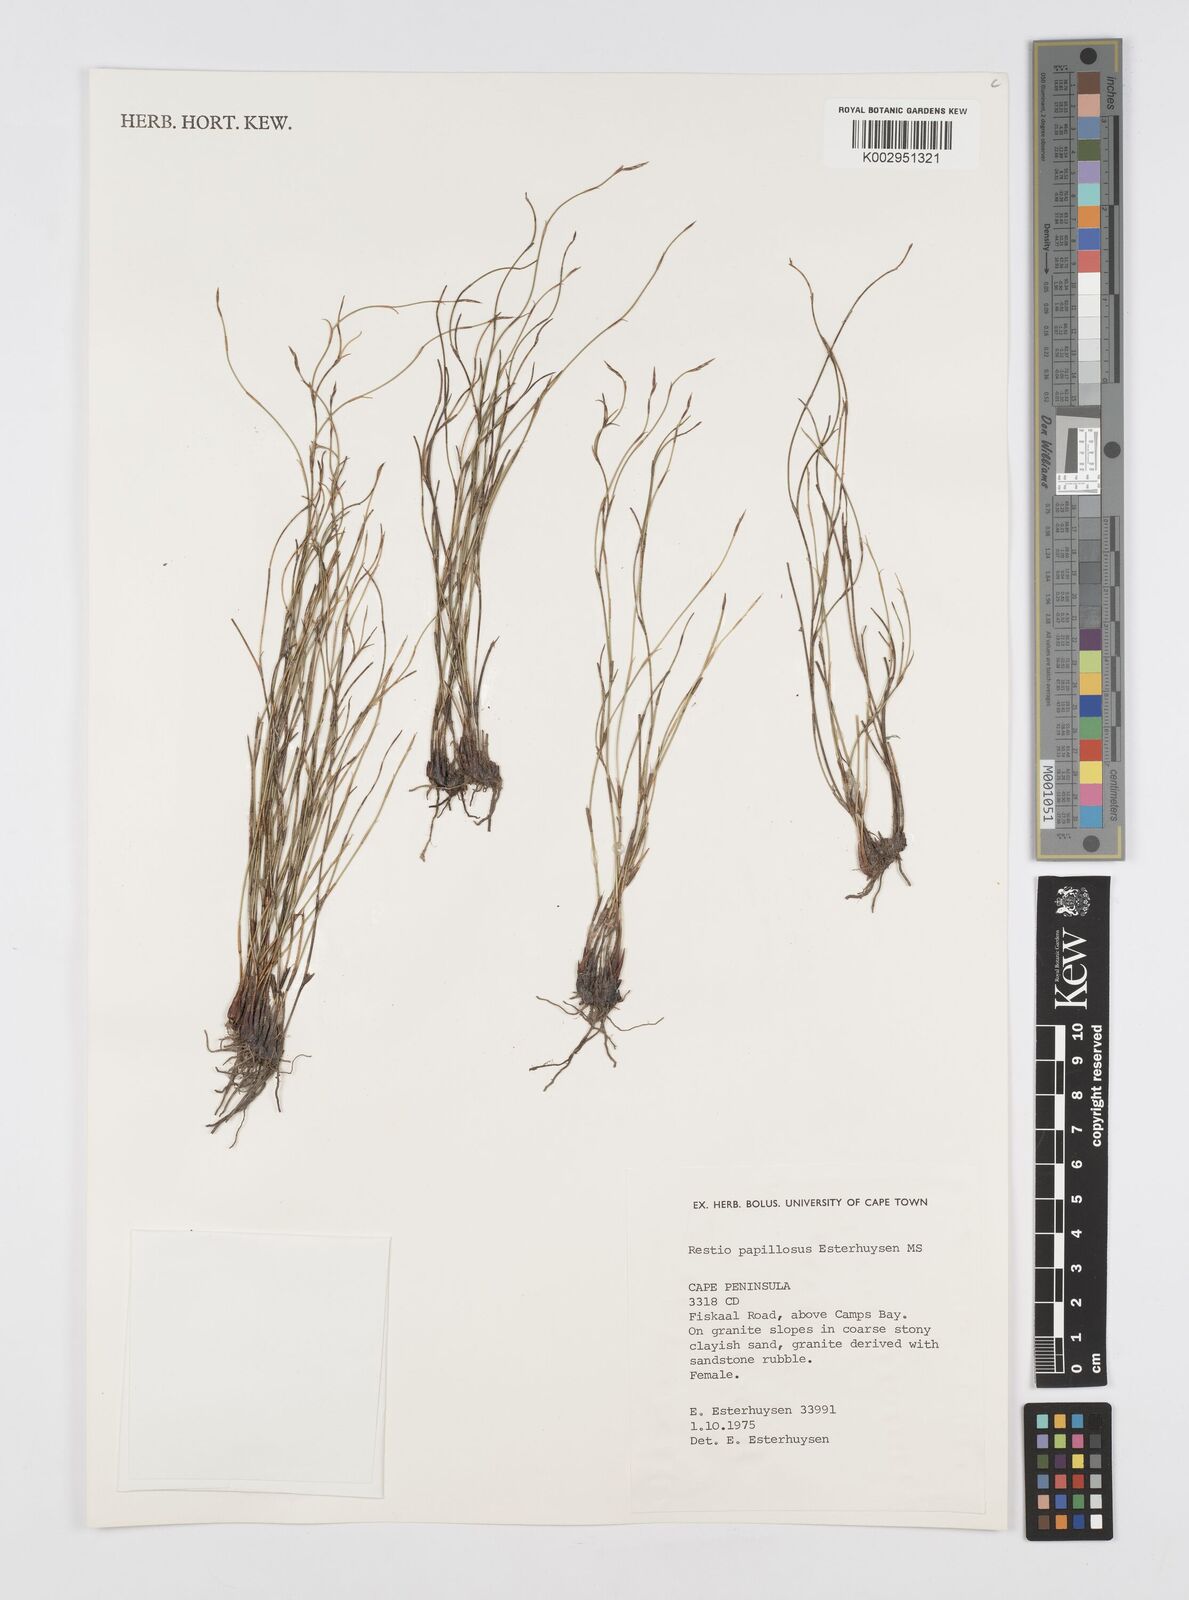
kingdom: Plantae
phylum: Tracheophyta
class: Liliopsida
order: Poales
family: Restionaceae
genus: Restio
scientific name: Restio papillosus
